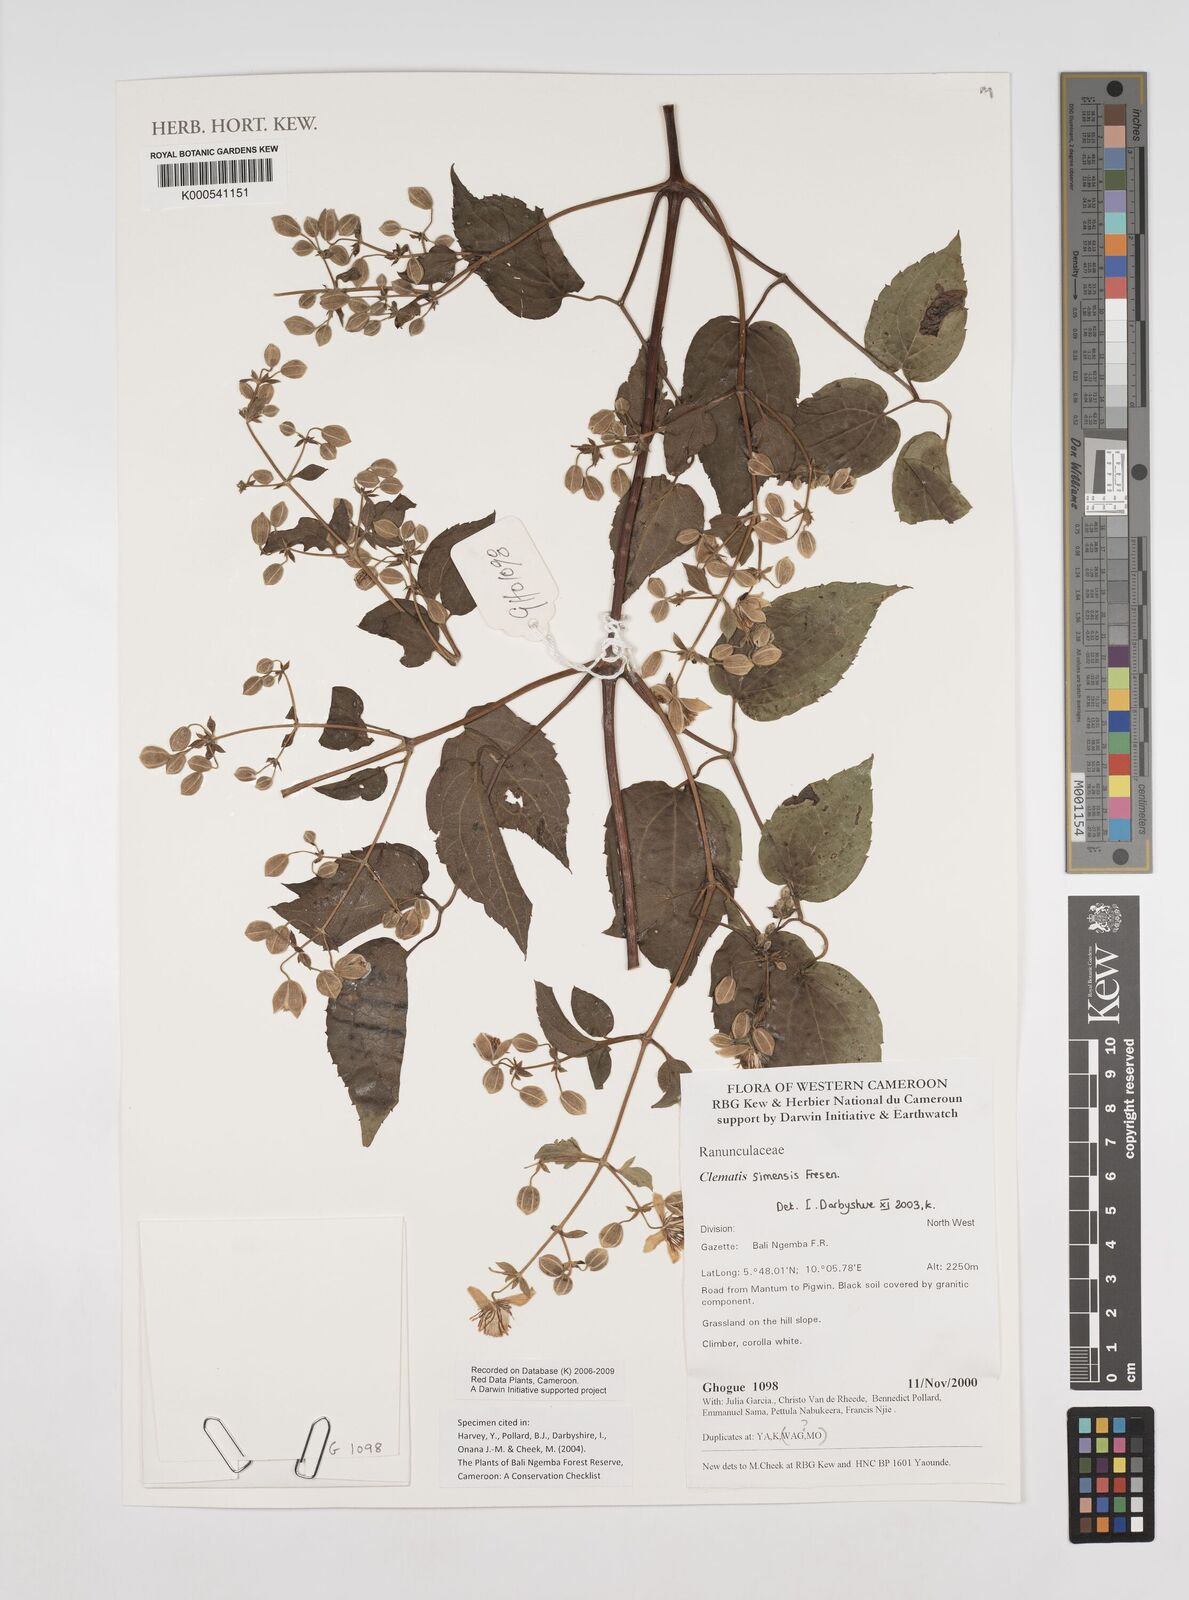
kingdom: Plantae
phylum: Tracheophyta
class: Magnoliopsida
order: Ranunculales
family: Ranunculaceae
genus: Clematis
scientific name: Clematis simensis
